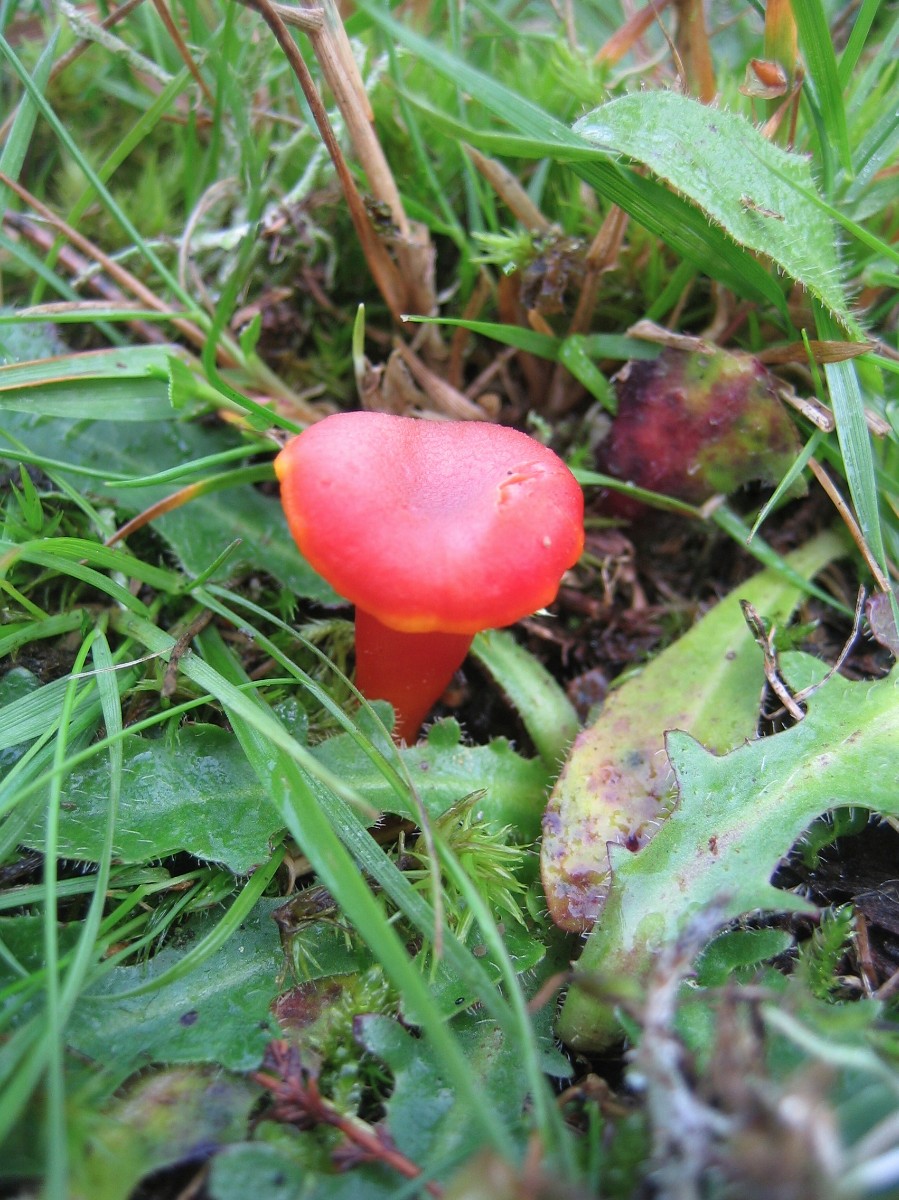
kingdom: Fungi
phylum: Basidiomycota
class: Agaricomycetes
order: Agaricales
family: Hygrophoraceae
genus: Hygrocybe
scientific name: Hygrocybe miniata
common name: mønje-vokshat
